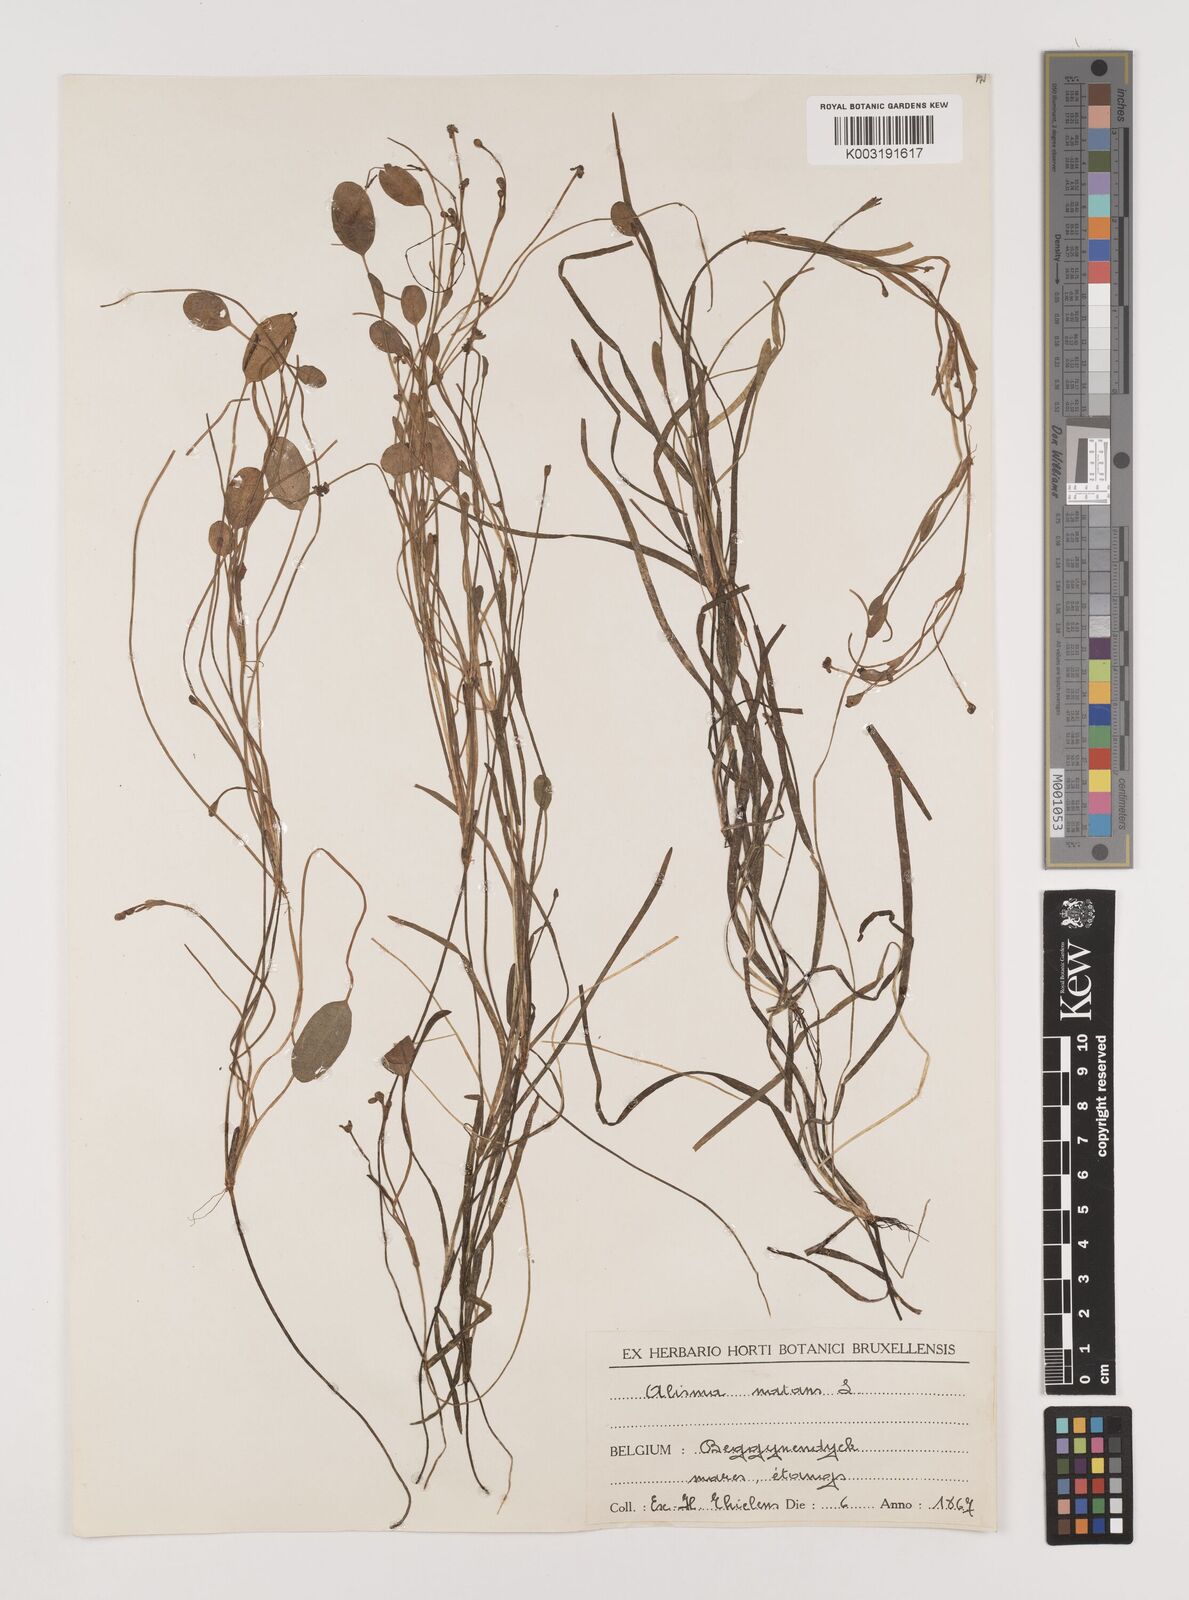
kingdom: Plantae
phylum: Tracheophyta
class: Liliopsida
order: Alismatales
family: Alismataceae
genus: Luronium
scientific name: Luronium natans
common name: Floating water-plantain
